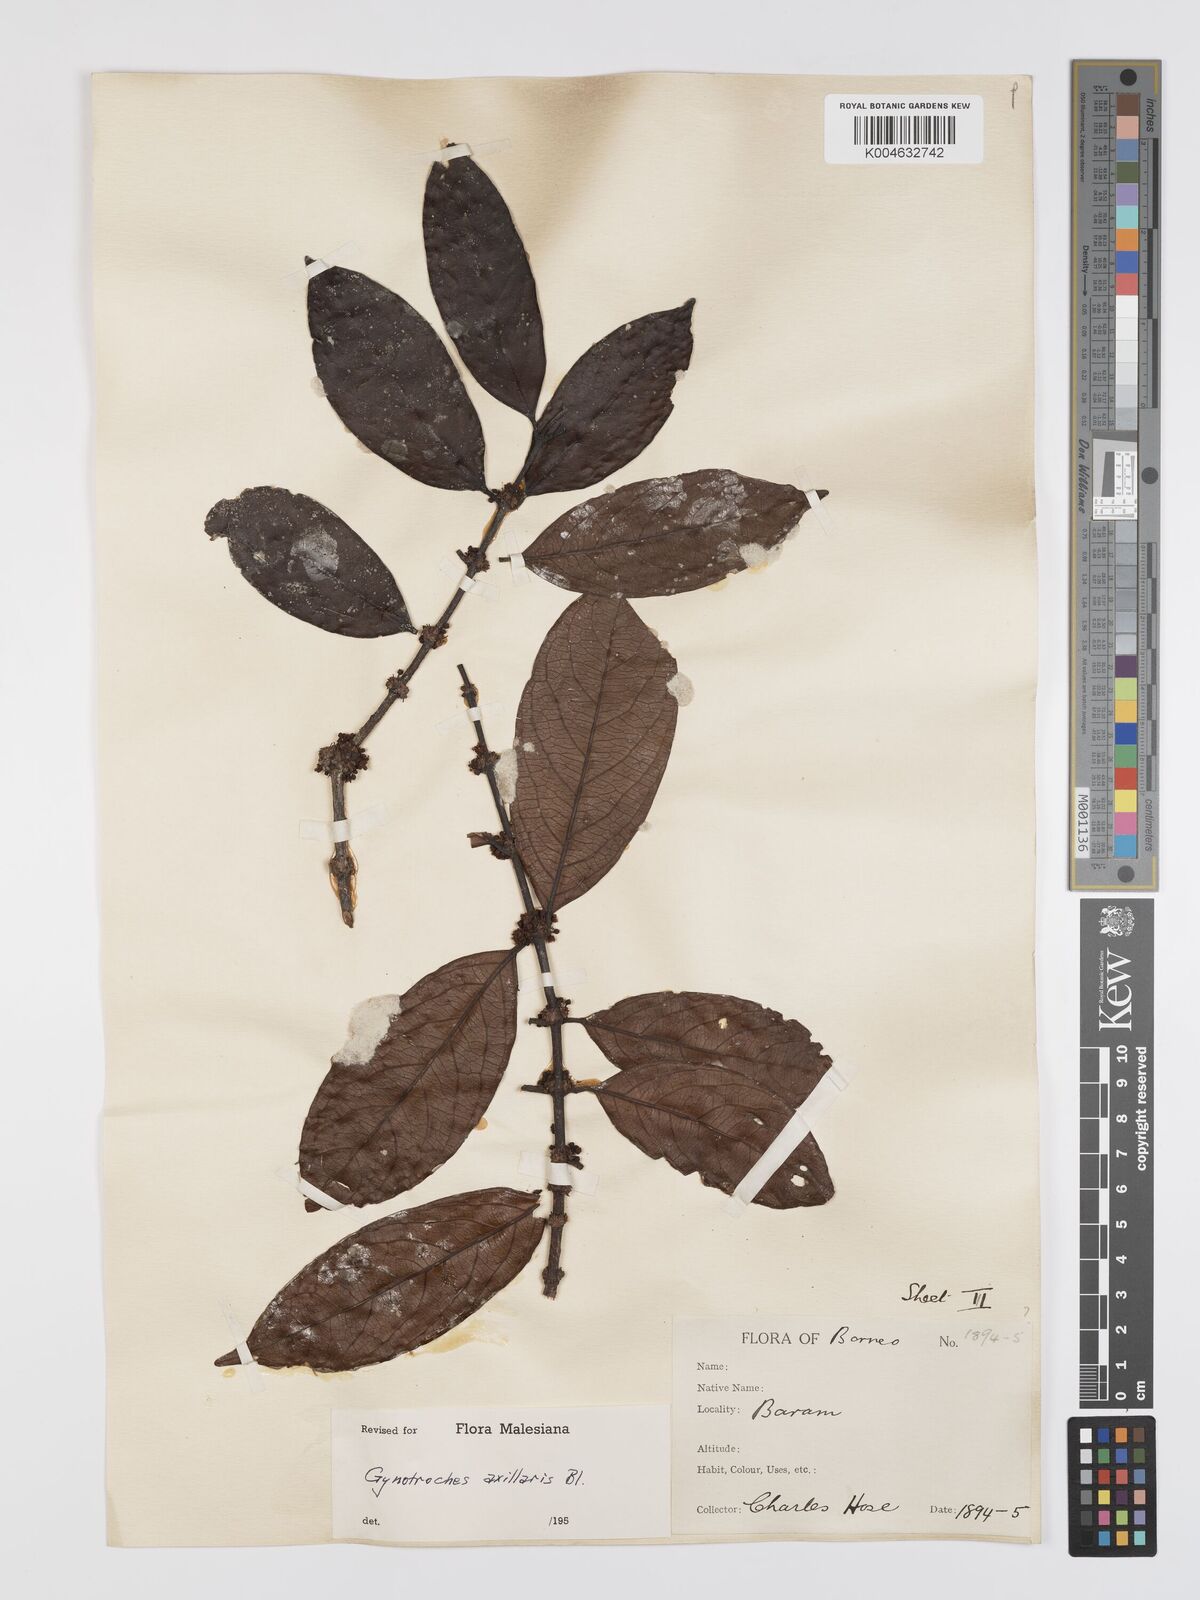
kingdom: Plantae
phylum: Tracheophyta
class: Magnoliopsida
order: Malpighiales
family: Rhizophoraceae
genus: Gynotroches
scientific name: Gynotroches axillaris
